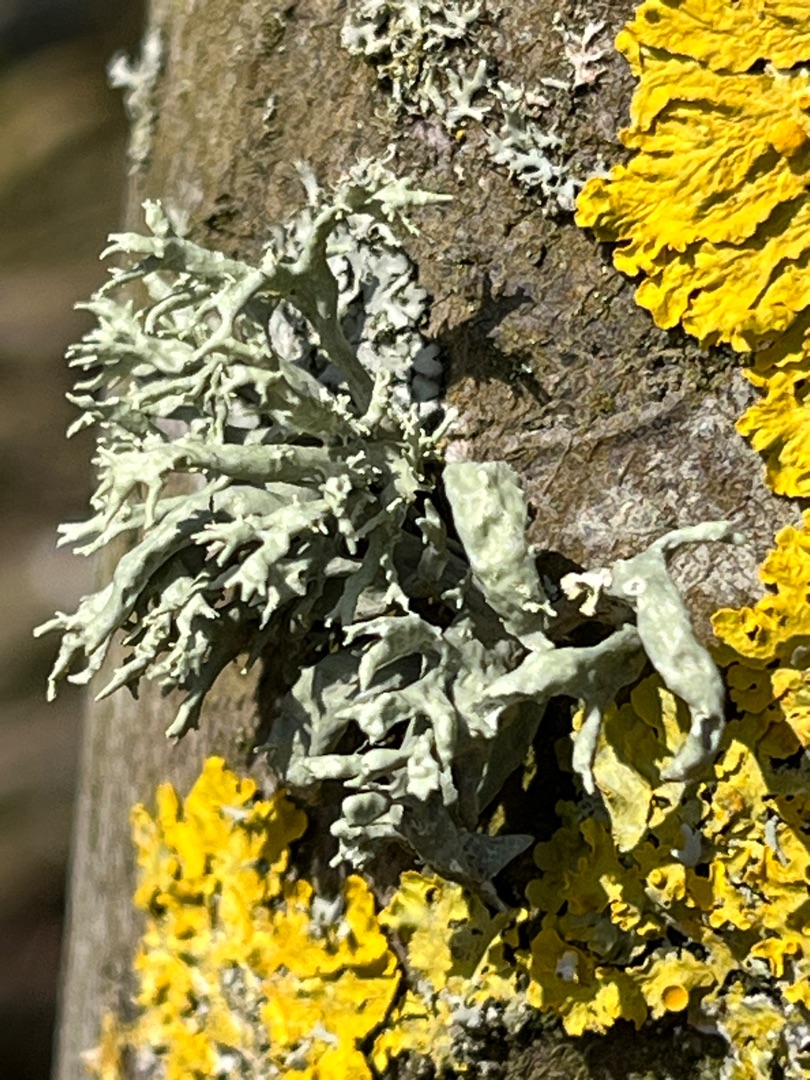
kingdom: Fungi
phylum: Ascomycota
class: Lecanoromycetes
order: Lecanorales
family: Ramalinaceae
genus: Ramalina
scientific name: Ramalina fastigiata
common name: Tue-grenlav
